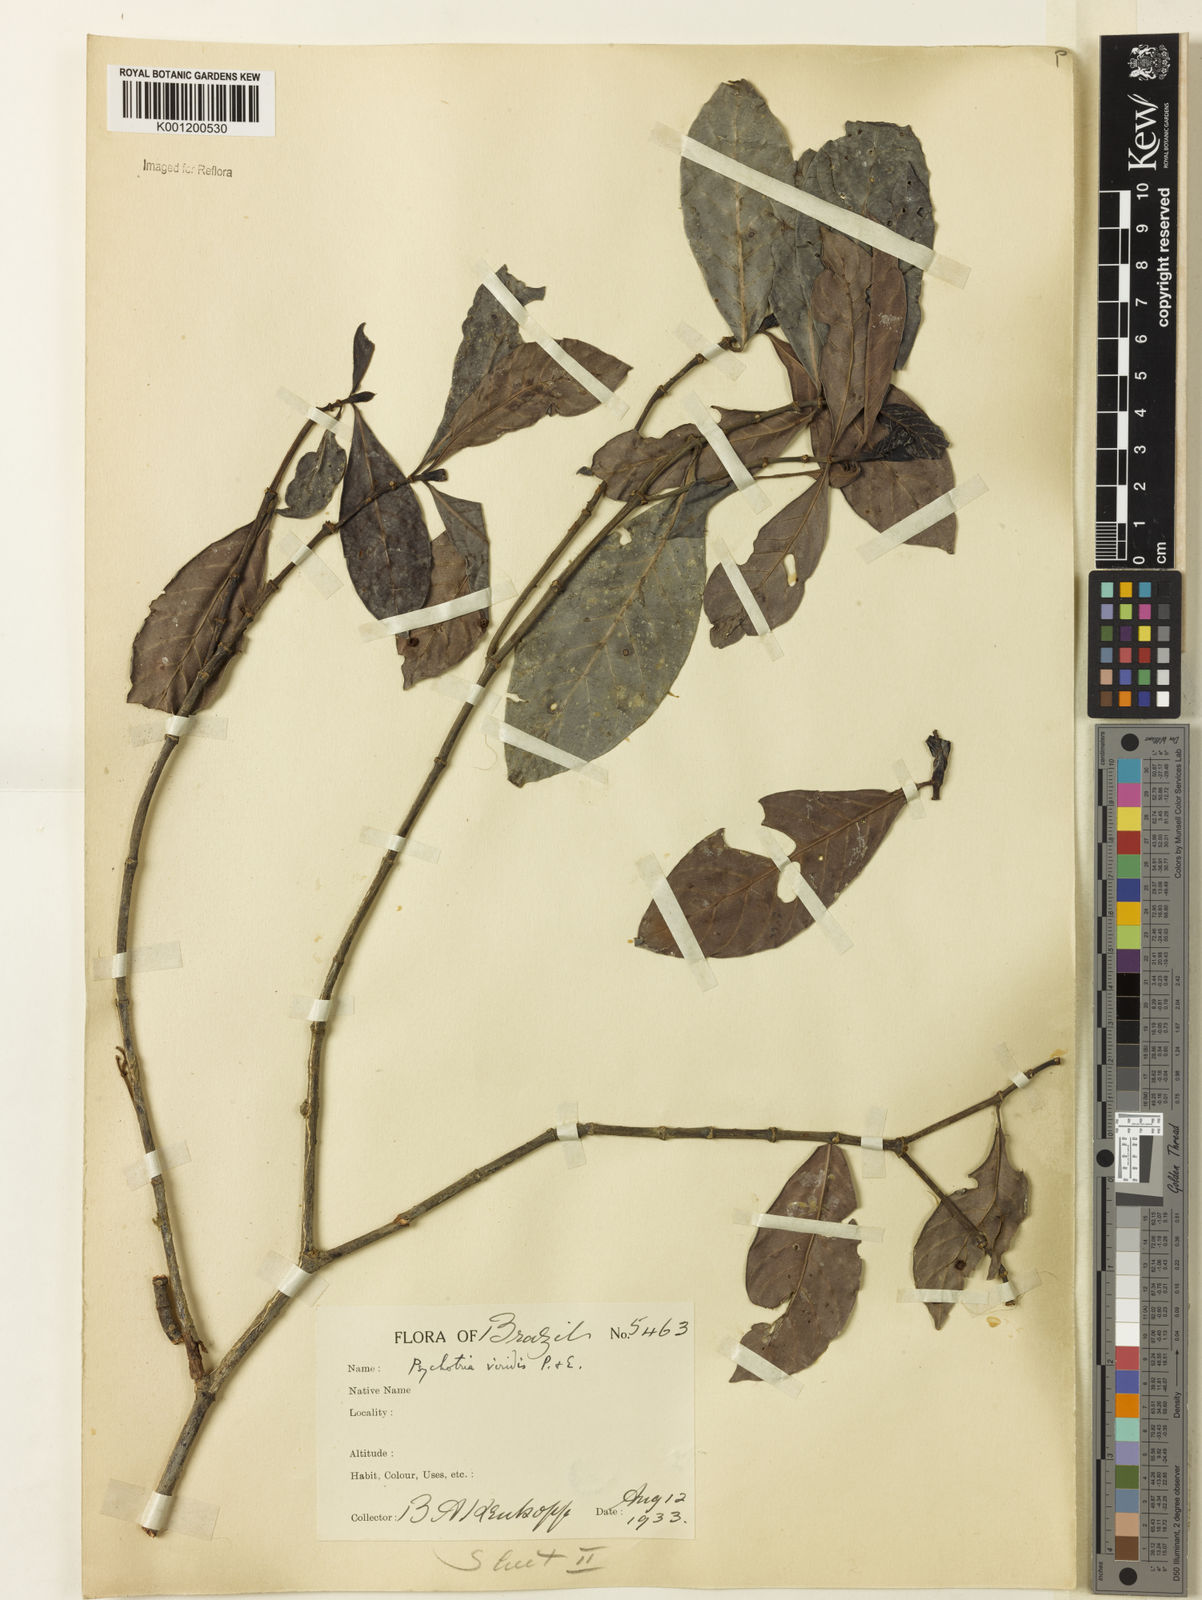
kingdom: Plantae
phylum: Tracheophyta
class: Magnoliopsida
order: Gentianales
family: Rubiaceae
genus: Psychotria
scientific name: Psychotria viridis
